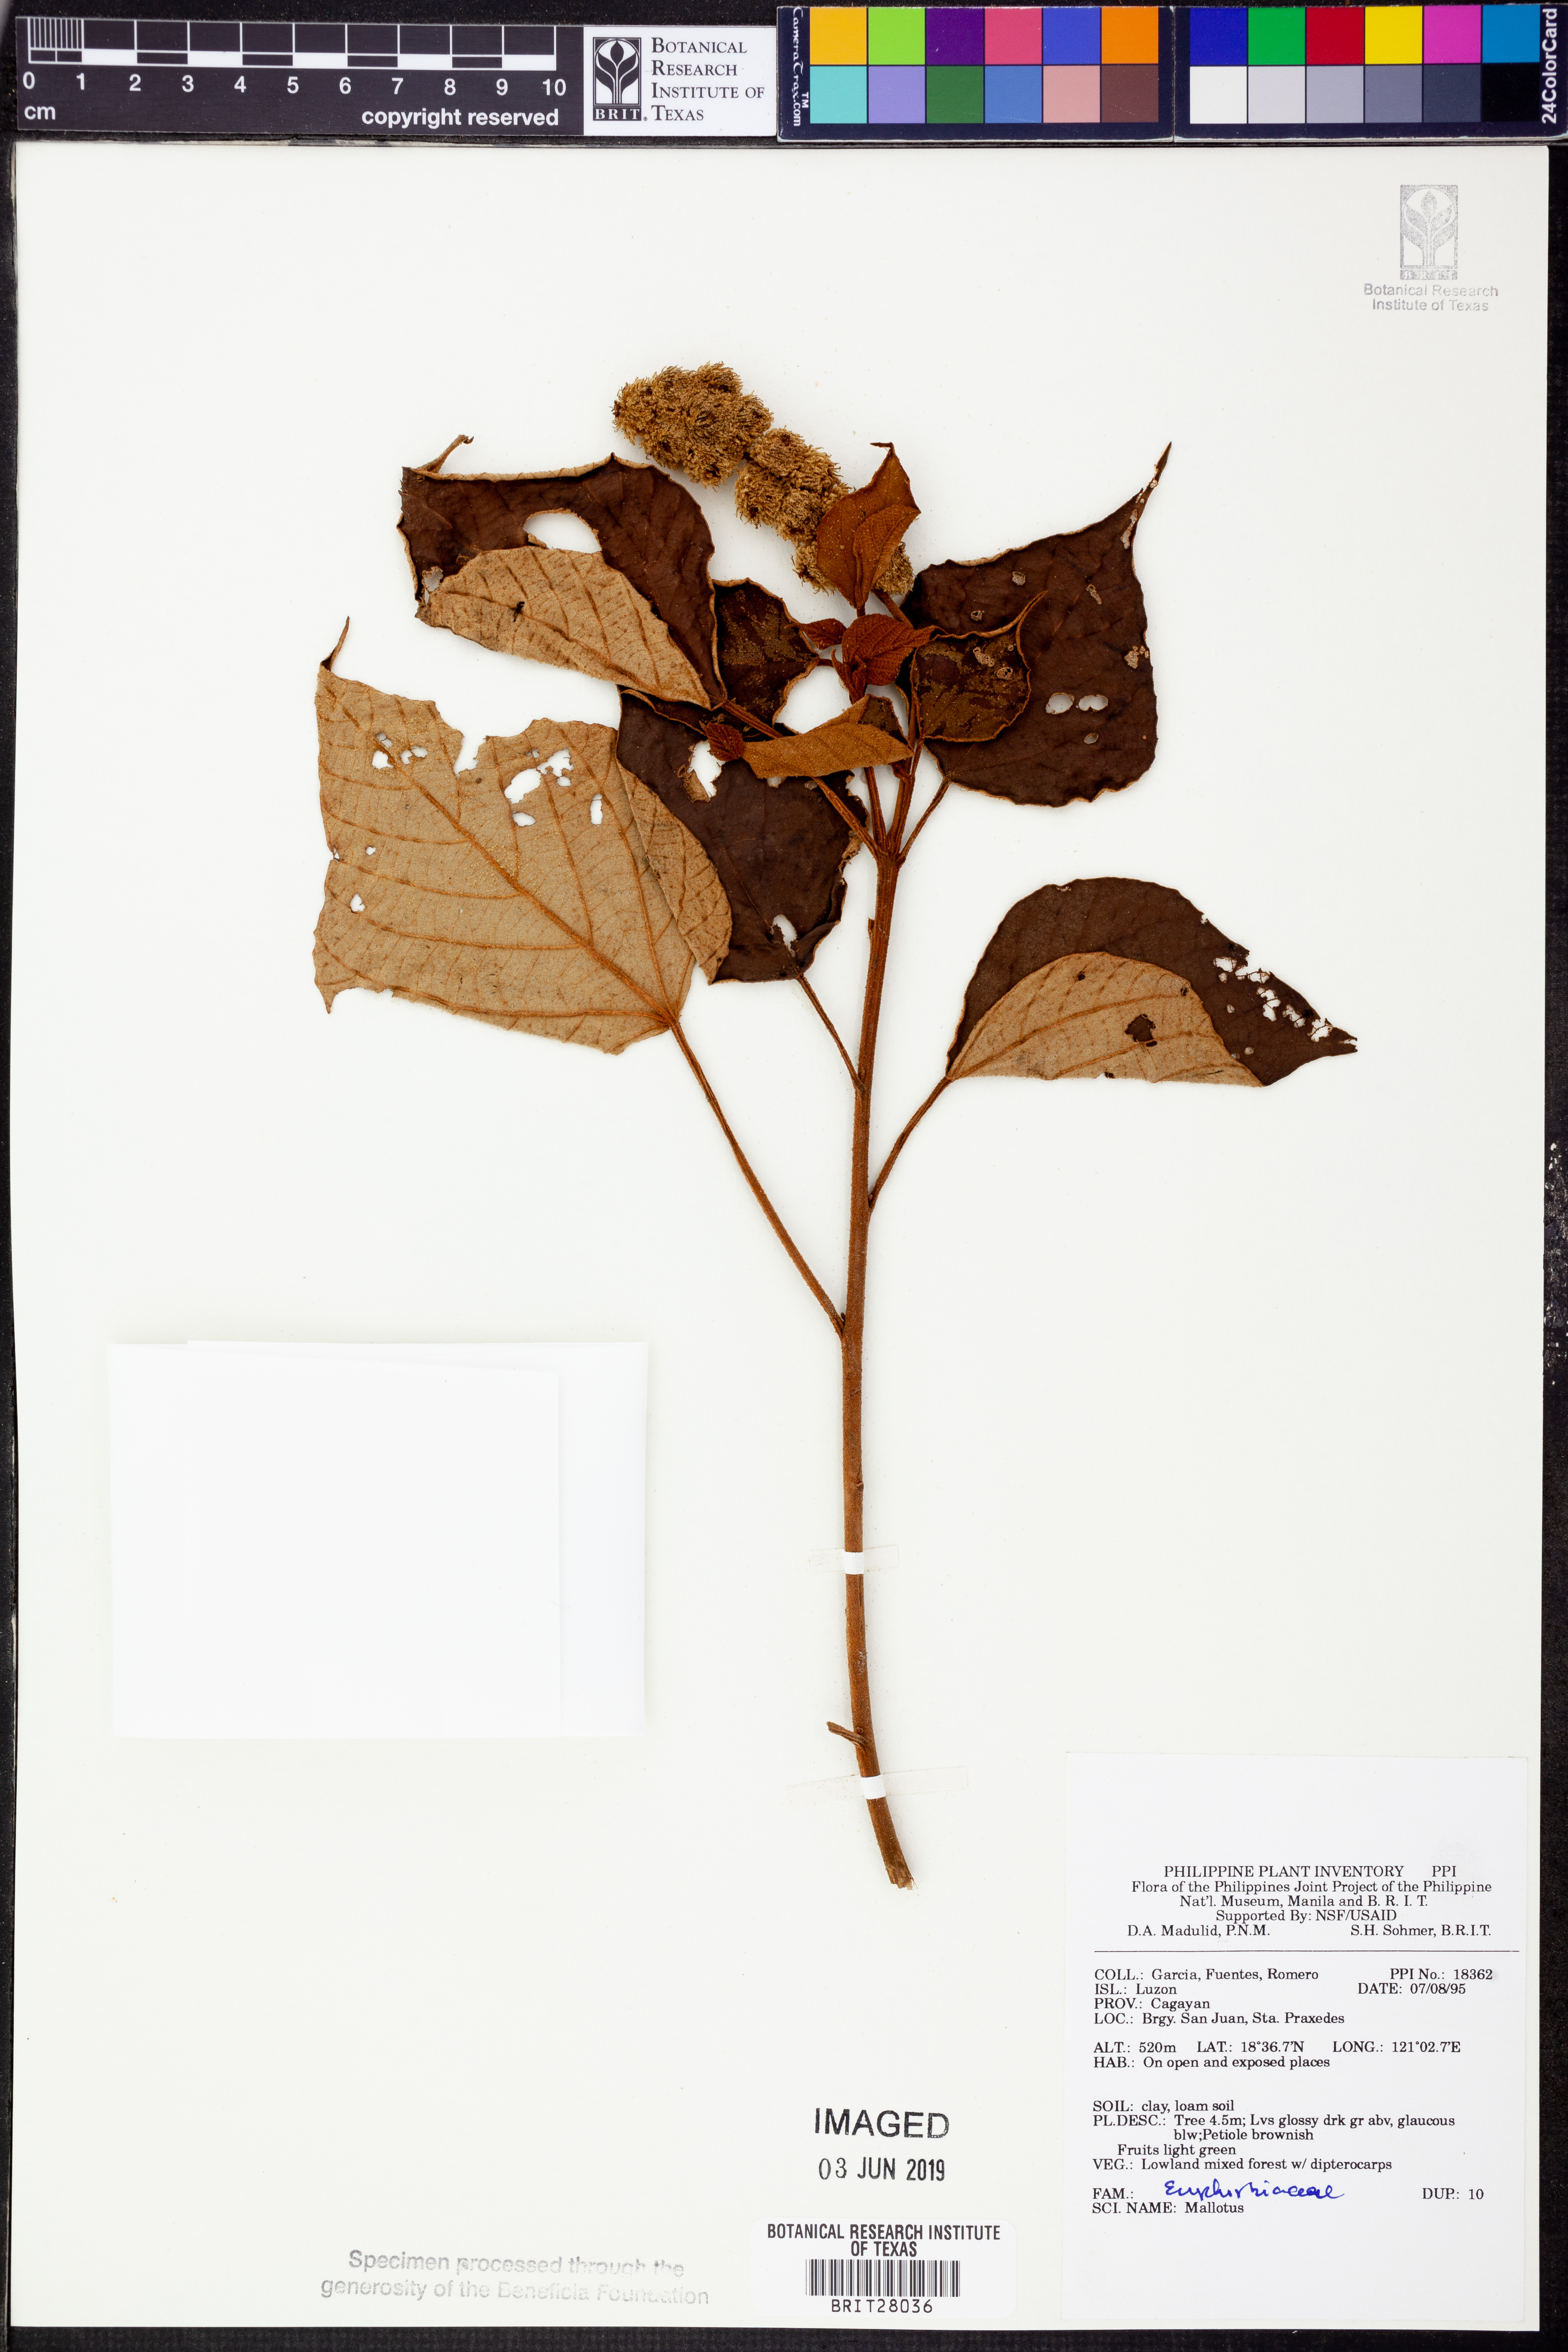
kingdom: Plantae
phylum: Tracheophyta
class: Magnoliopsida
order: Malvales
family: Malvaceae
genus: Malope
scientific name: Malope
